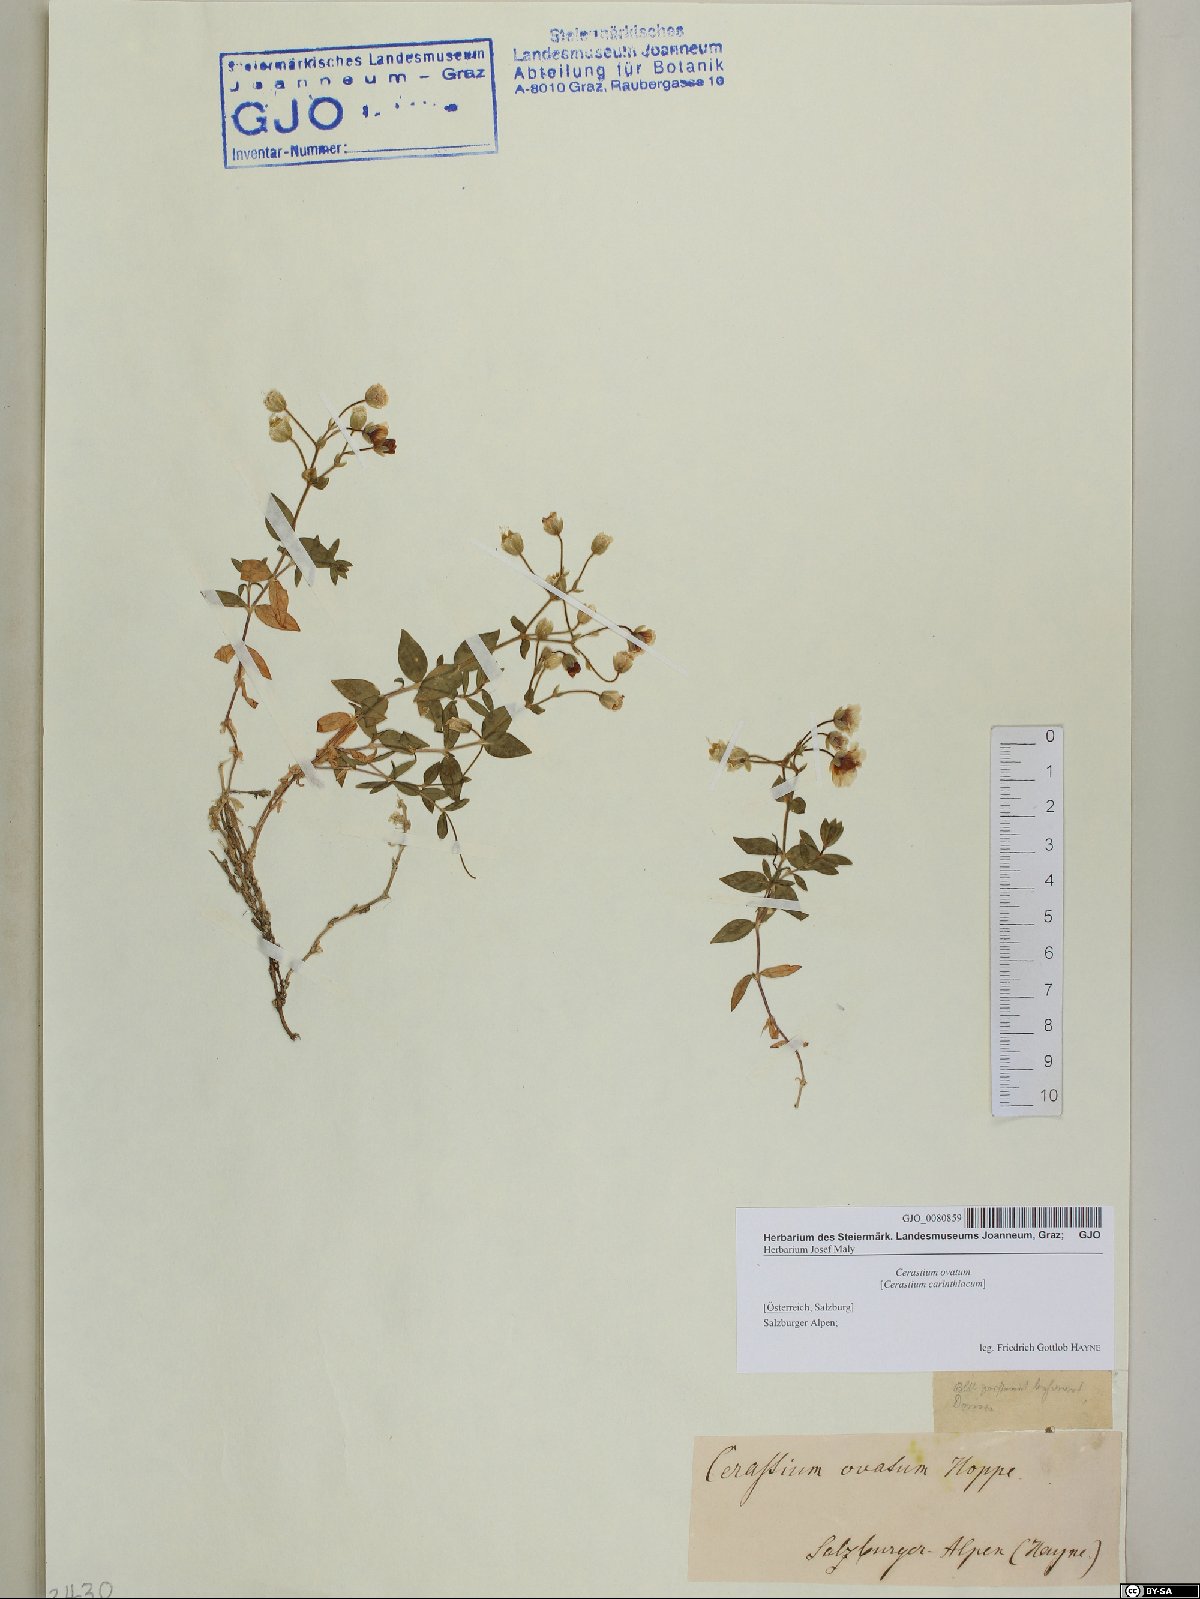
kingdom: Plantae
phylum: Tracheophyta
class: Magnoliopsida
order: Caryophyllales
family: Caryophyllaceae
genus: Cerastium
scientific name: Cerastium arvense
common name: Field mouse-ear
